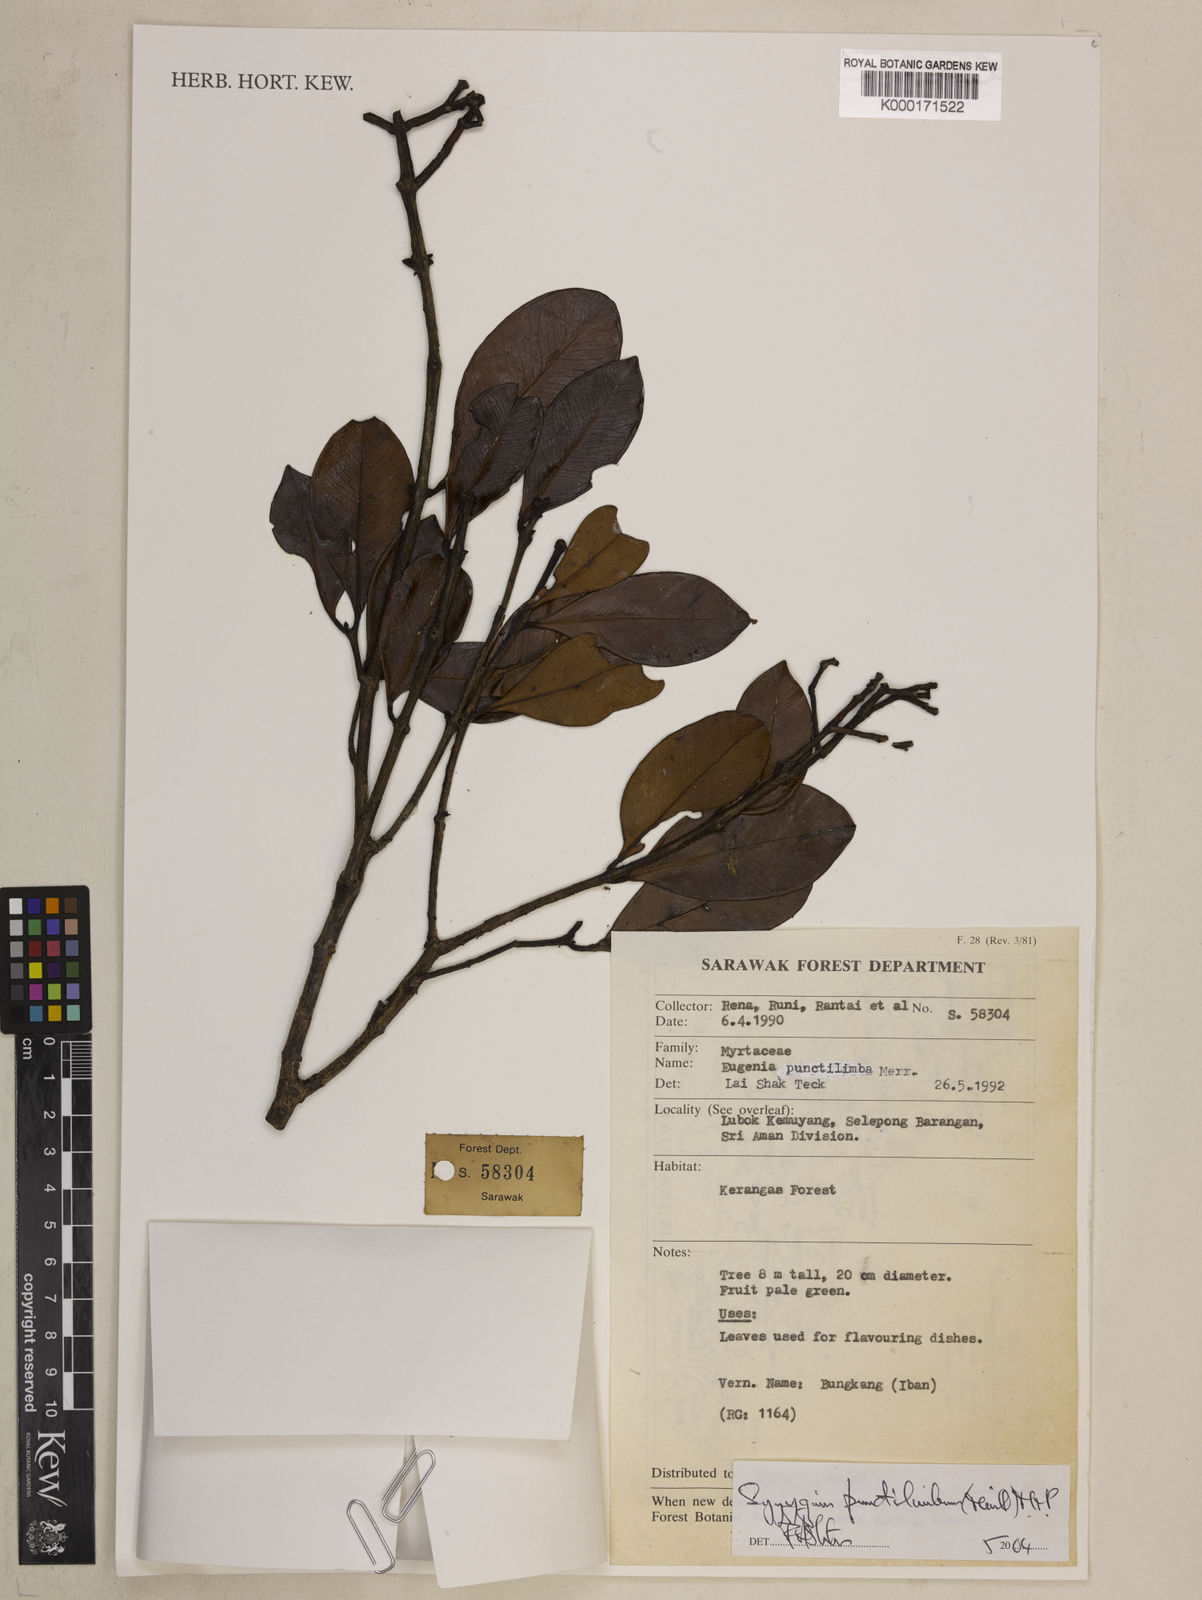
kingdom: Plantae
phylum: Tracheophyta
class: Magnoliopsida
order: Myrtales
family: Myrtaceae
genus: Syzygium
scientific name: Syzygium punctilimbum
